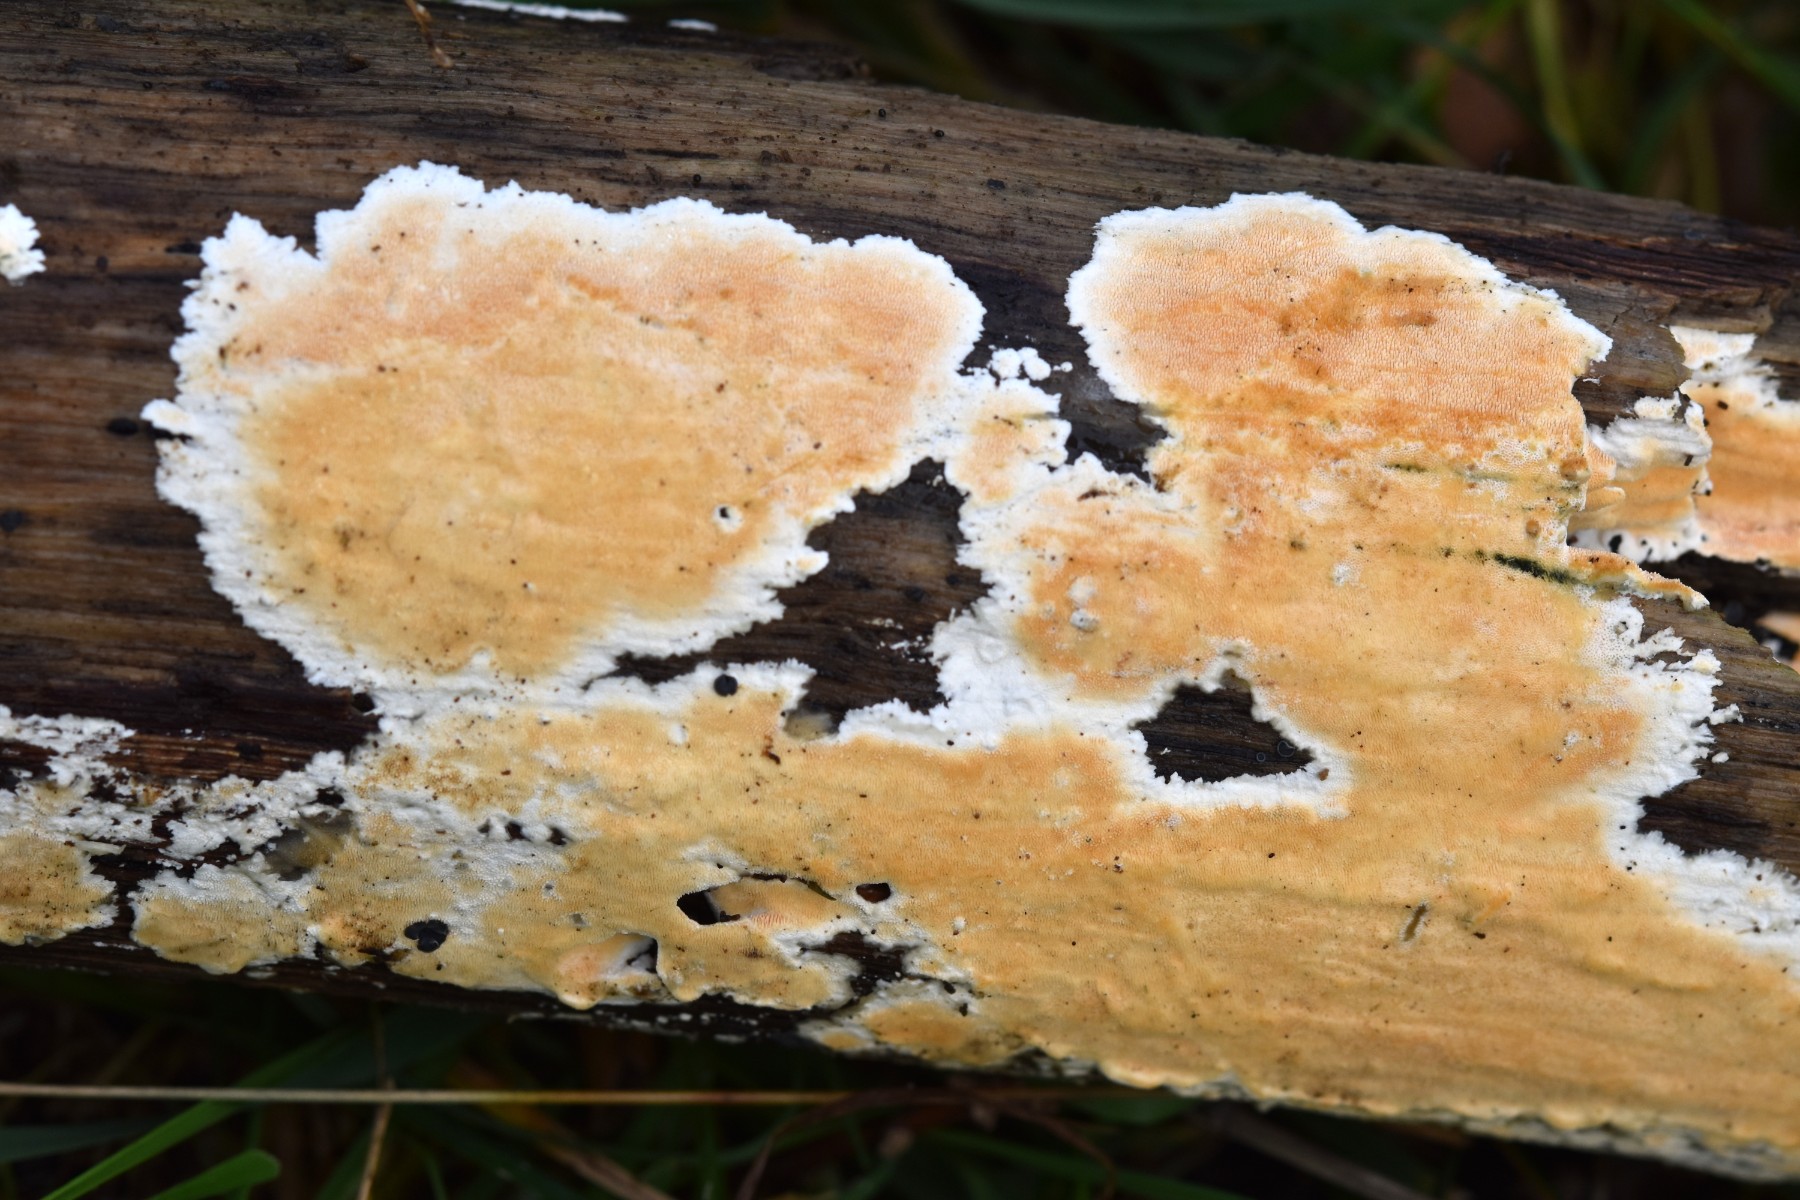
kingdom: Fungi
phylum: Basidiomycota
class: Agaricomycetes
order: Polyporales
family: Steccherinaceae
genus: Steccherinum
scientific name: Steccherinum ochraceum
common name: almindelig skønpig
